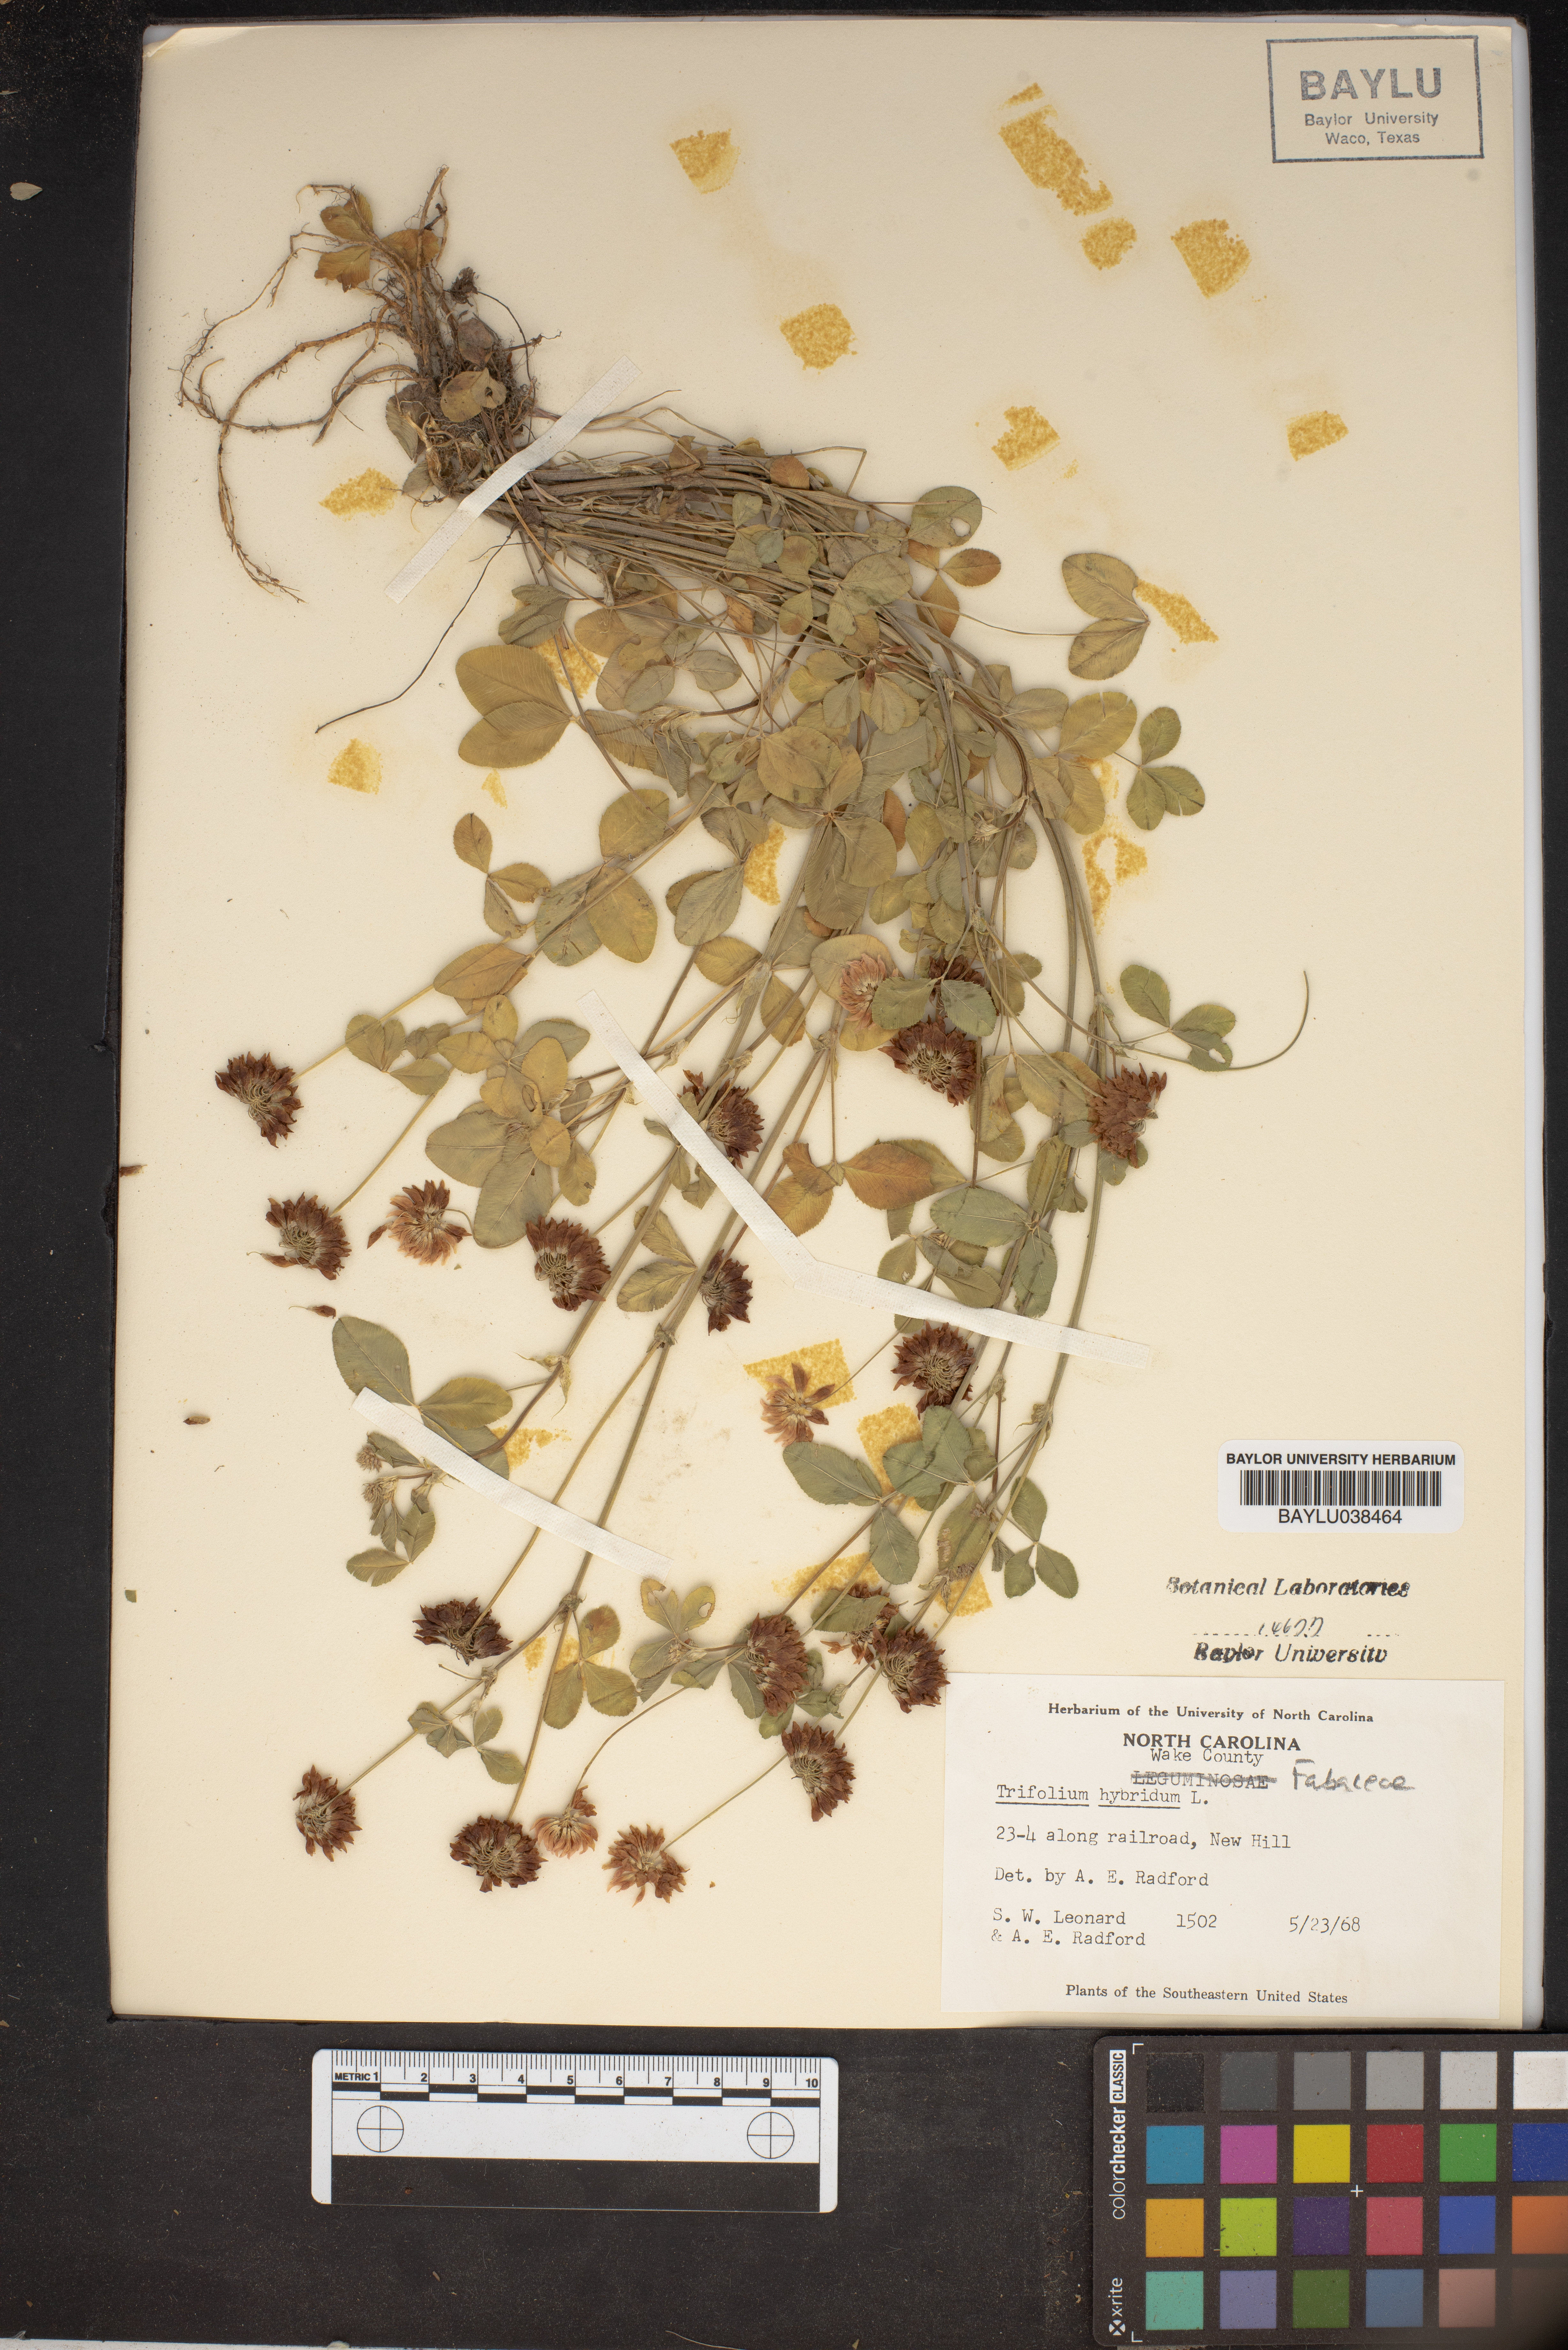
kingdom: Plantae
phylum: Tracheophyta
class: Magnoliopsida
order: Fabales
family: Fabaceae
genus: Trifolium
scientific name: Trifolium hybridum
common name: Alsike clover
